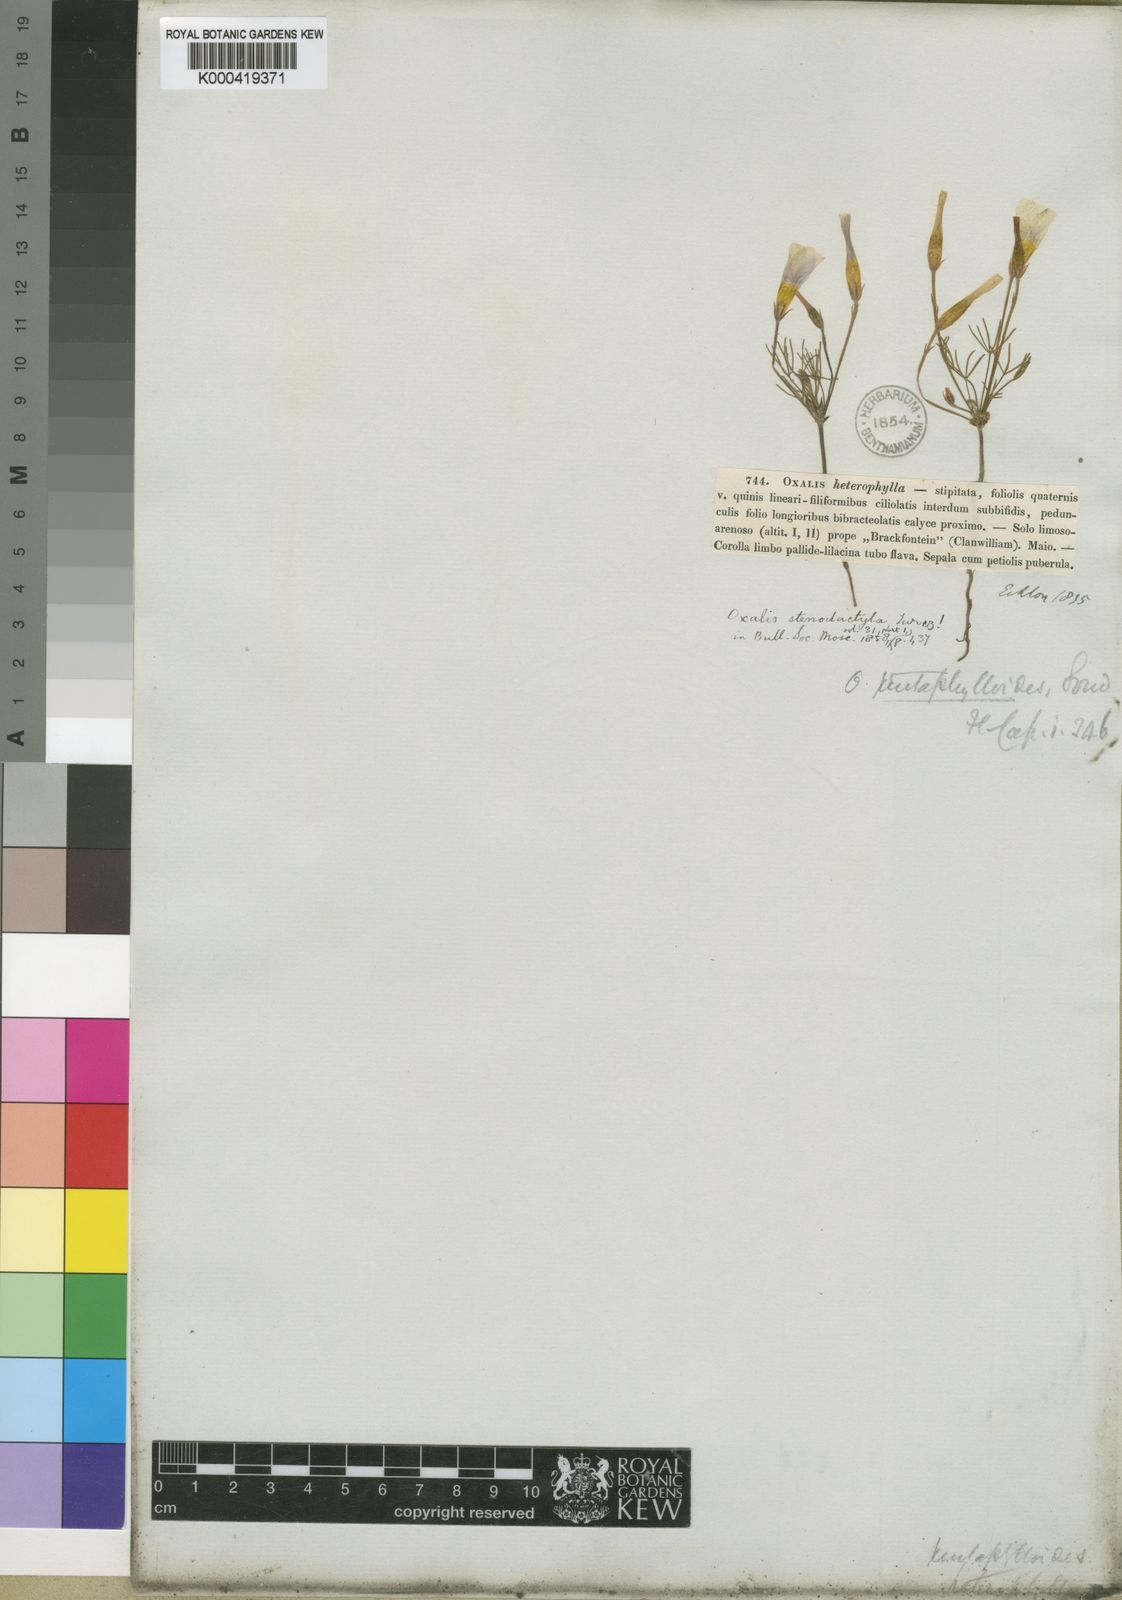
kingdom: Plantae
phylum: Tracheophyta
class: Magnoliopsida
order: Oxalidales
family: Oxalidaceae
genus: Oxalis
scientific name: Oxalis variifolia
